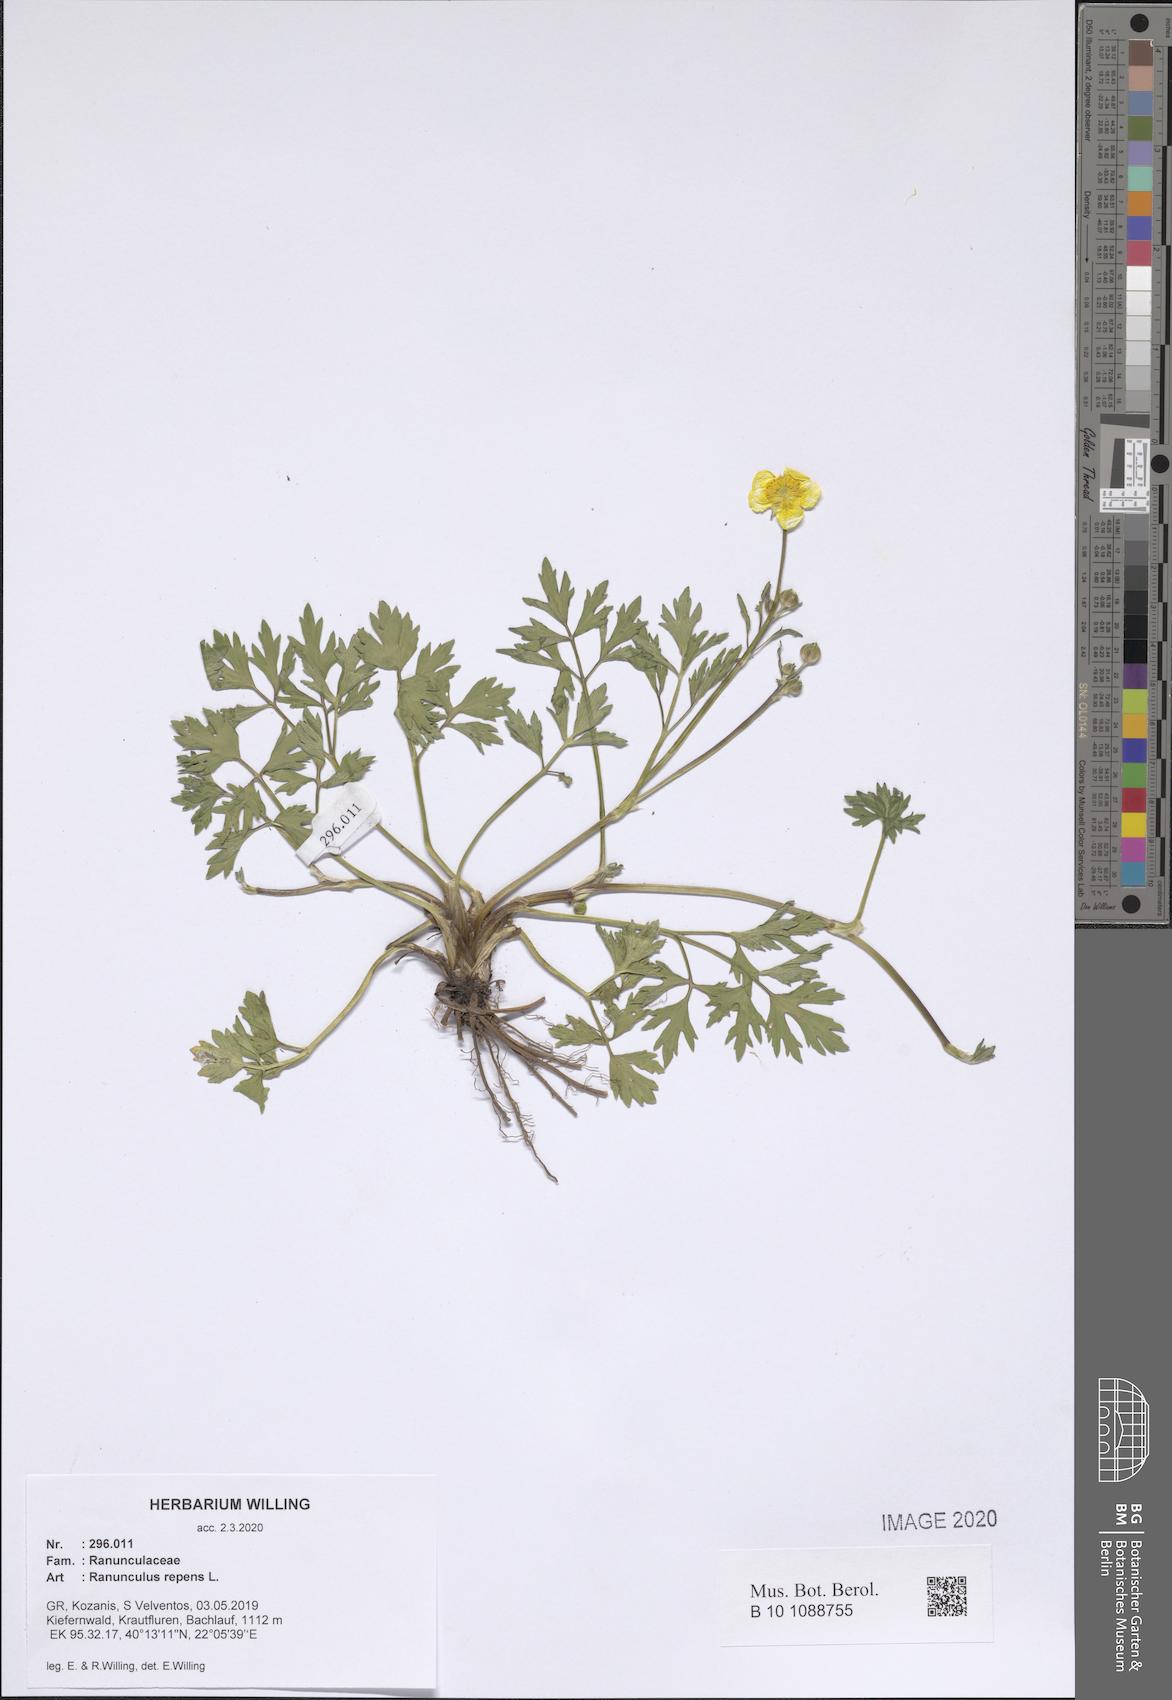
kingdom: Plantae
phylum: Tracheophyta
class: Magnoliopsida
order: Ranunculales
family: Ranunculaceae
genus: Ranunculus
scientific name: Ranunculus repens
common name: Creeping buttercup
